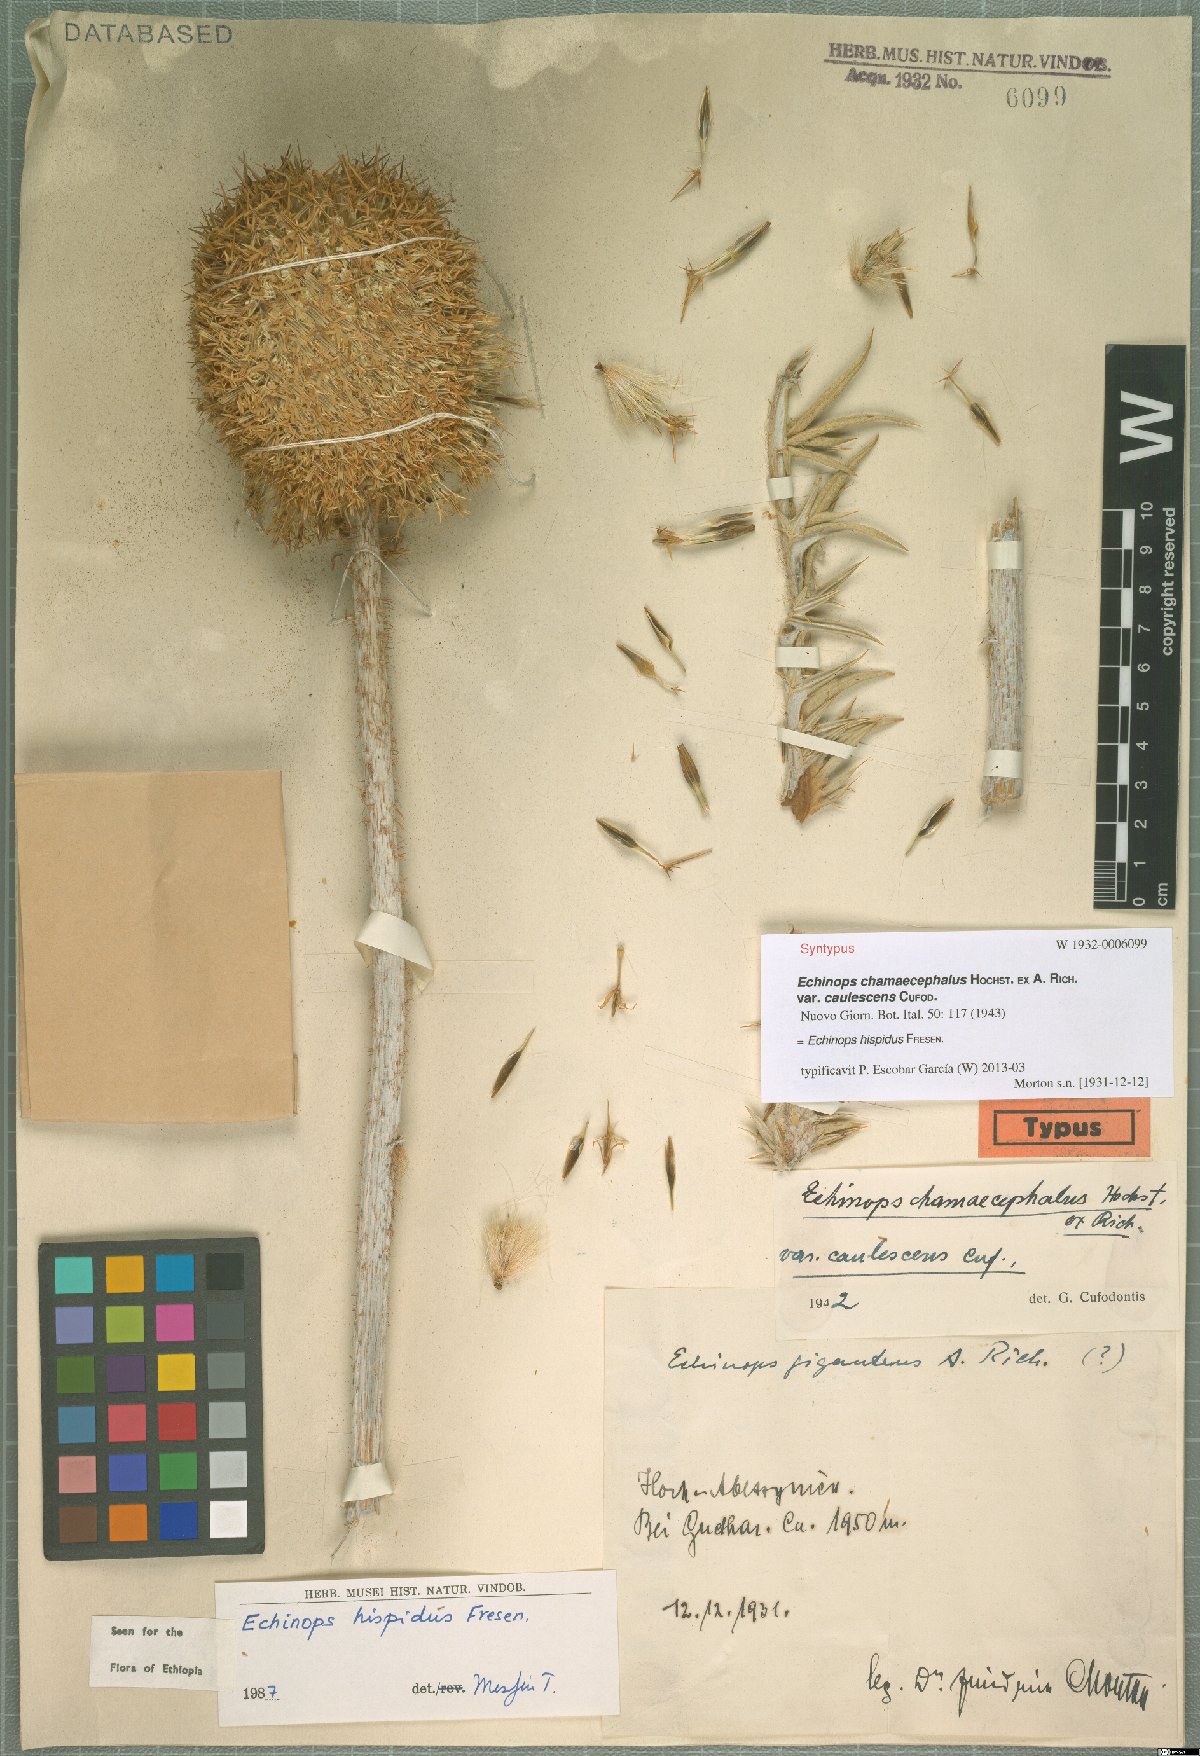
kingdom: Plantae
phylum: Tracheophyta
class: Magnoliopsida
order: Asterales
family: Asteraceae
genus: Echinops
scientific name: Echinops hispidus
